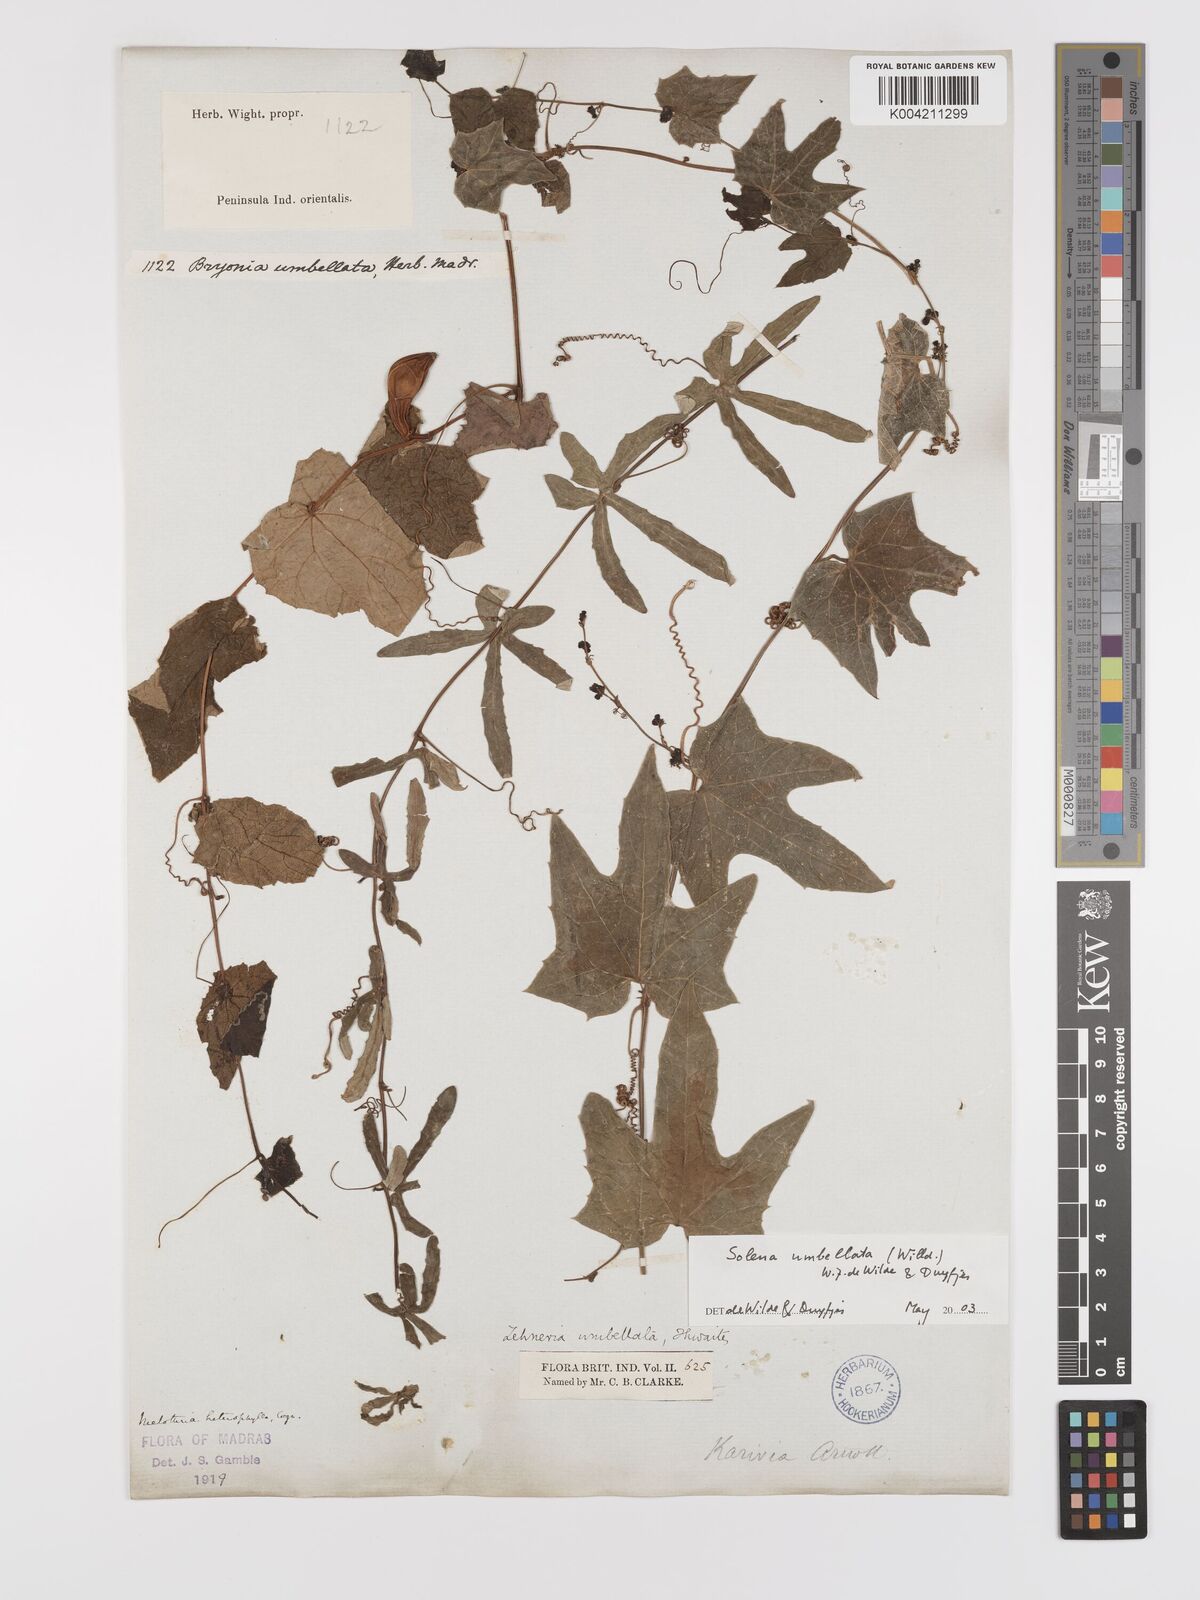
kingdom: Plantae
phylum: Tracheophyta
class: Magnoliopsida
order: Cucurbitales
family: Cucurbitaceae
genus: Solena
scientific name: Solena amplexicaulis
